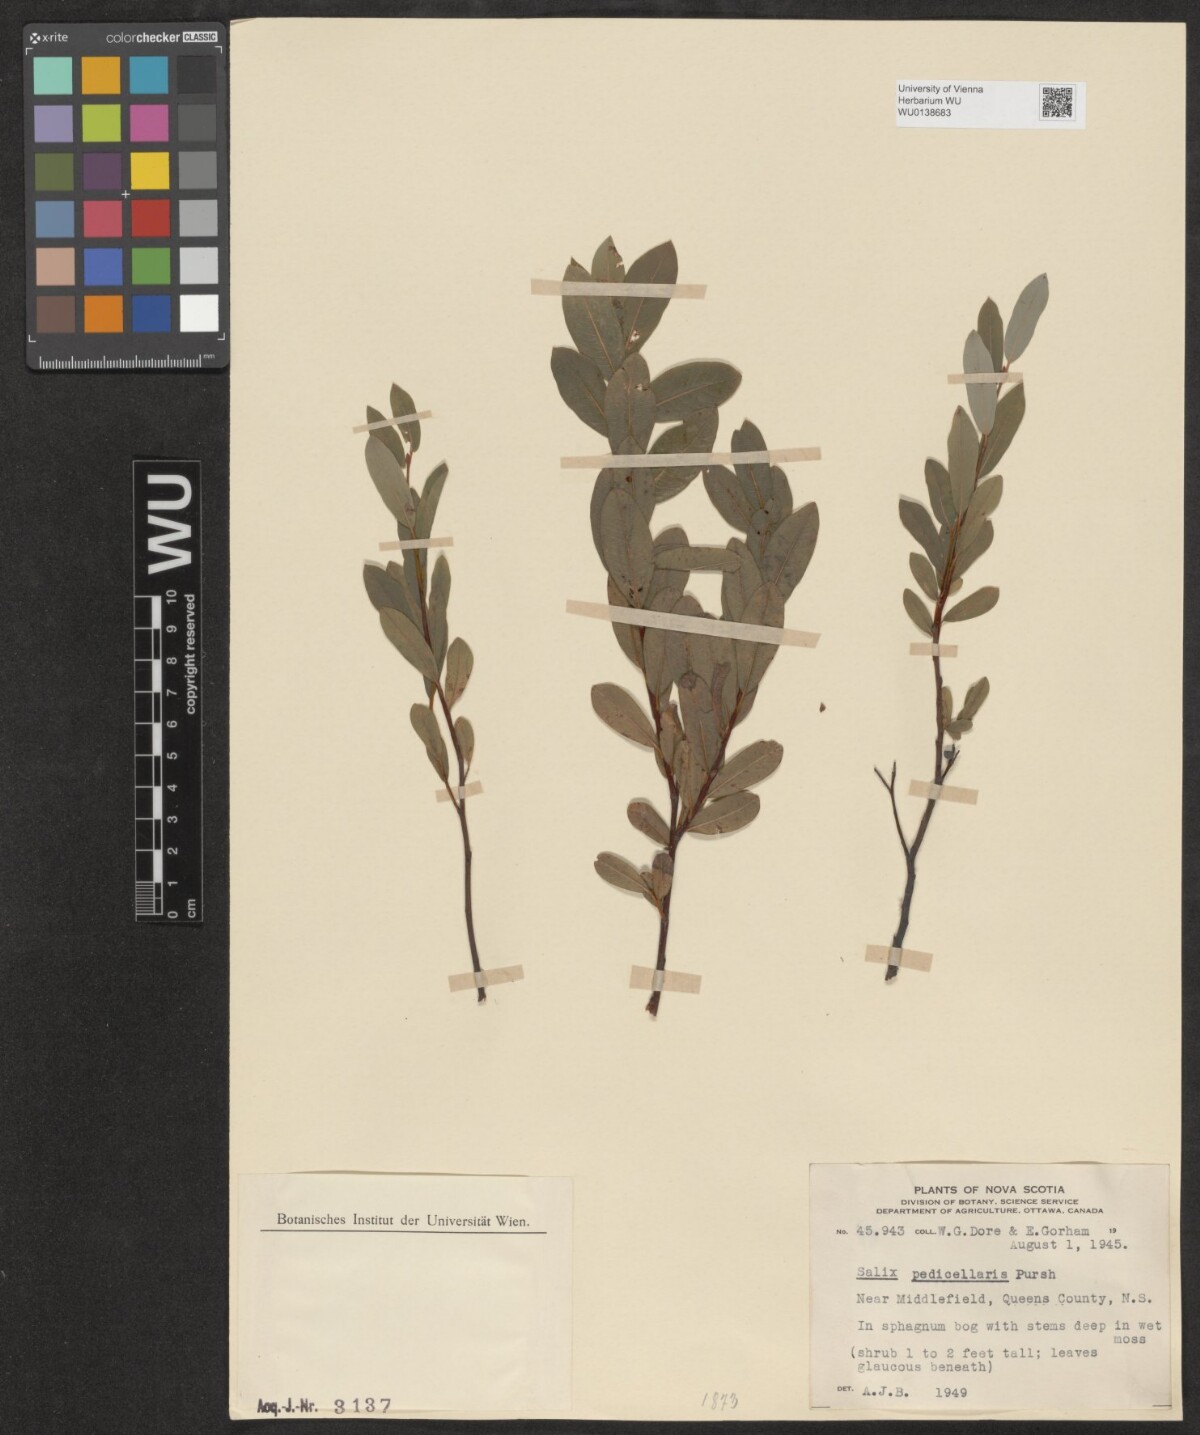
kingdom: Plantae
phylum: Tracheophyta
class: Magnoliopsida
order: Malpighiales
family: Salicaceae
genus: Salix
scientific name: Salix pedicellaris
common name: Bog willow
